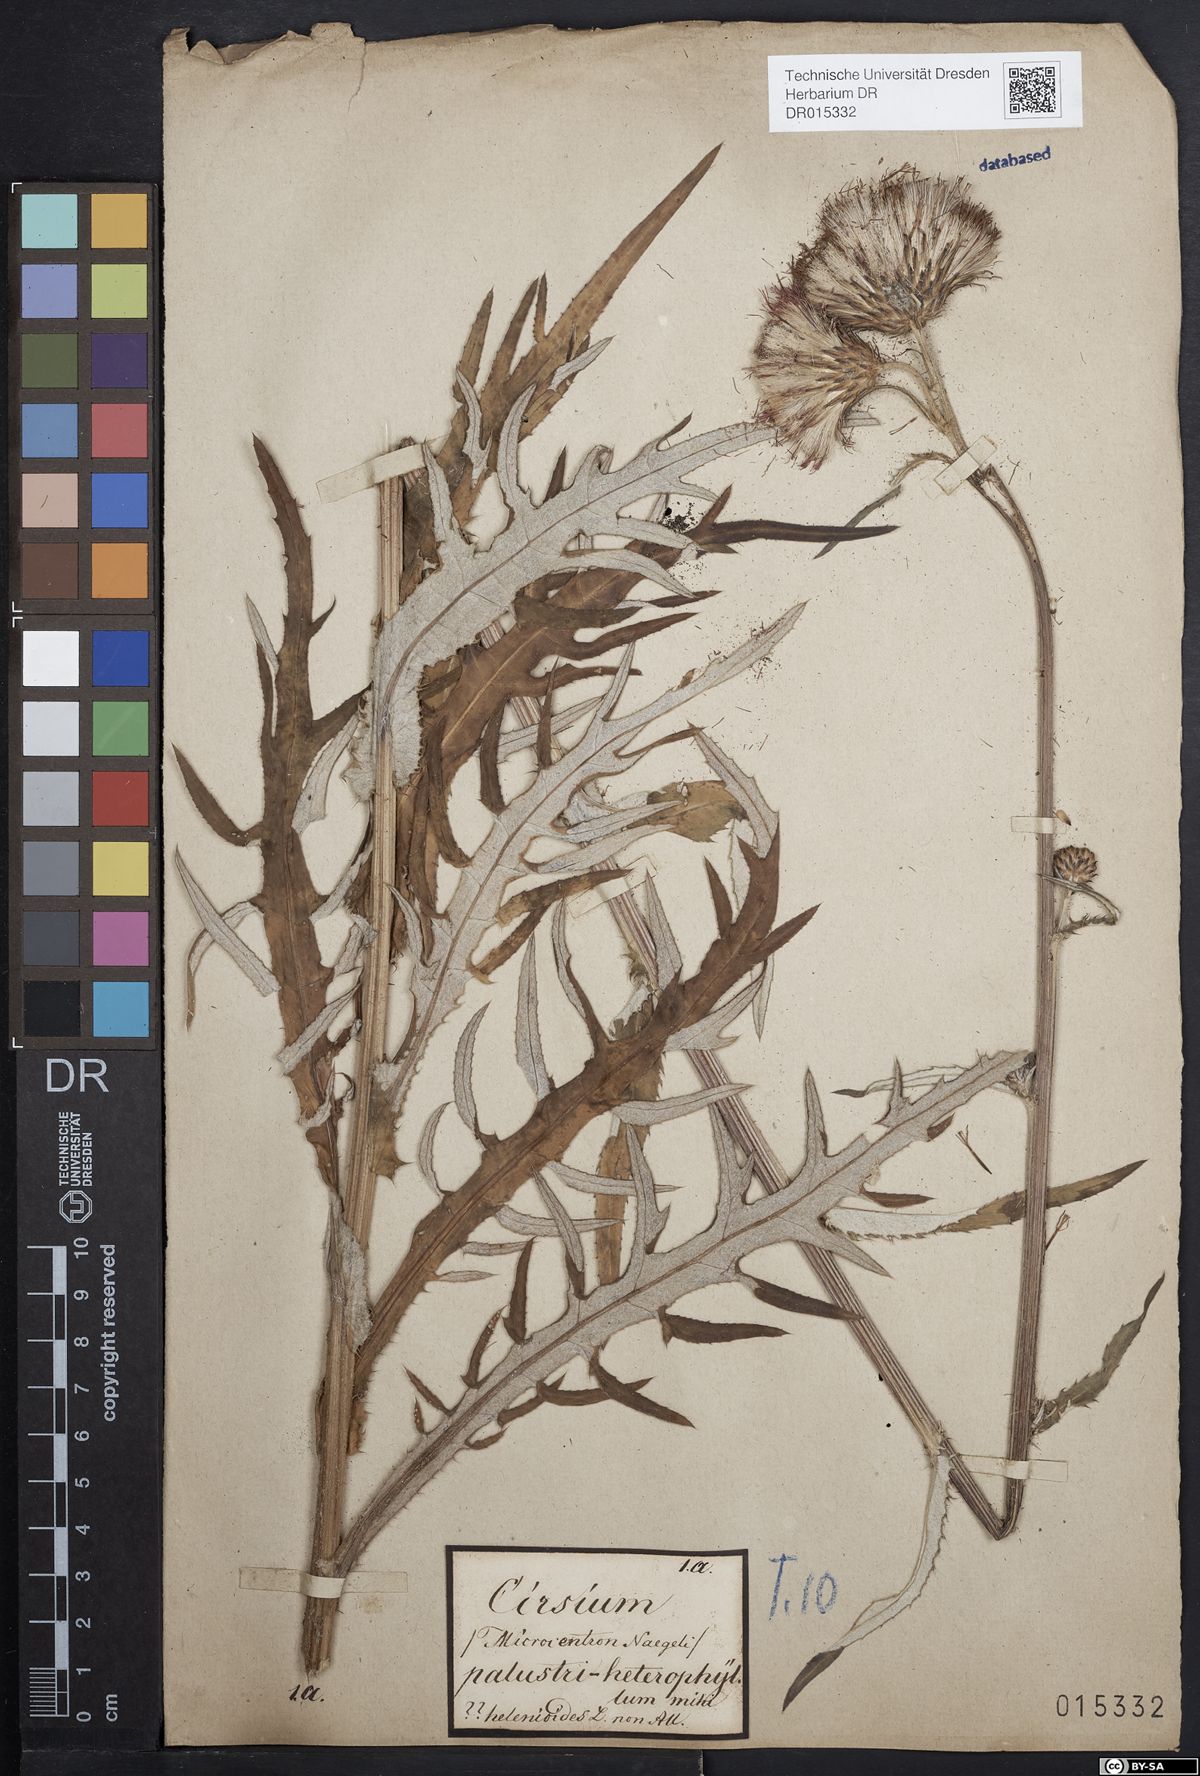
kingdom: Plantae
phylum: Tracheophyta
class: Magnoliopsida
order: Asterales
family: Asteraceae
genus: Cirsium
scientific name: Cirsium wankelii
